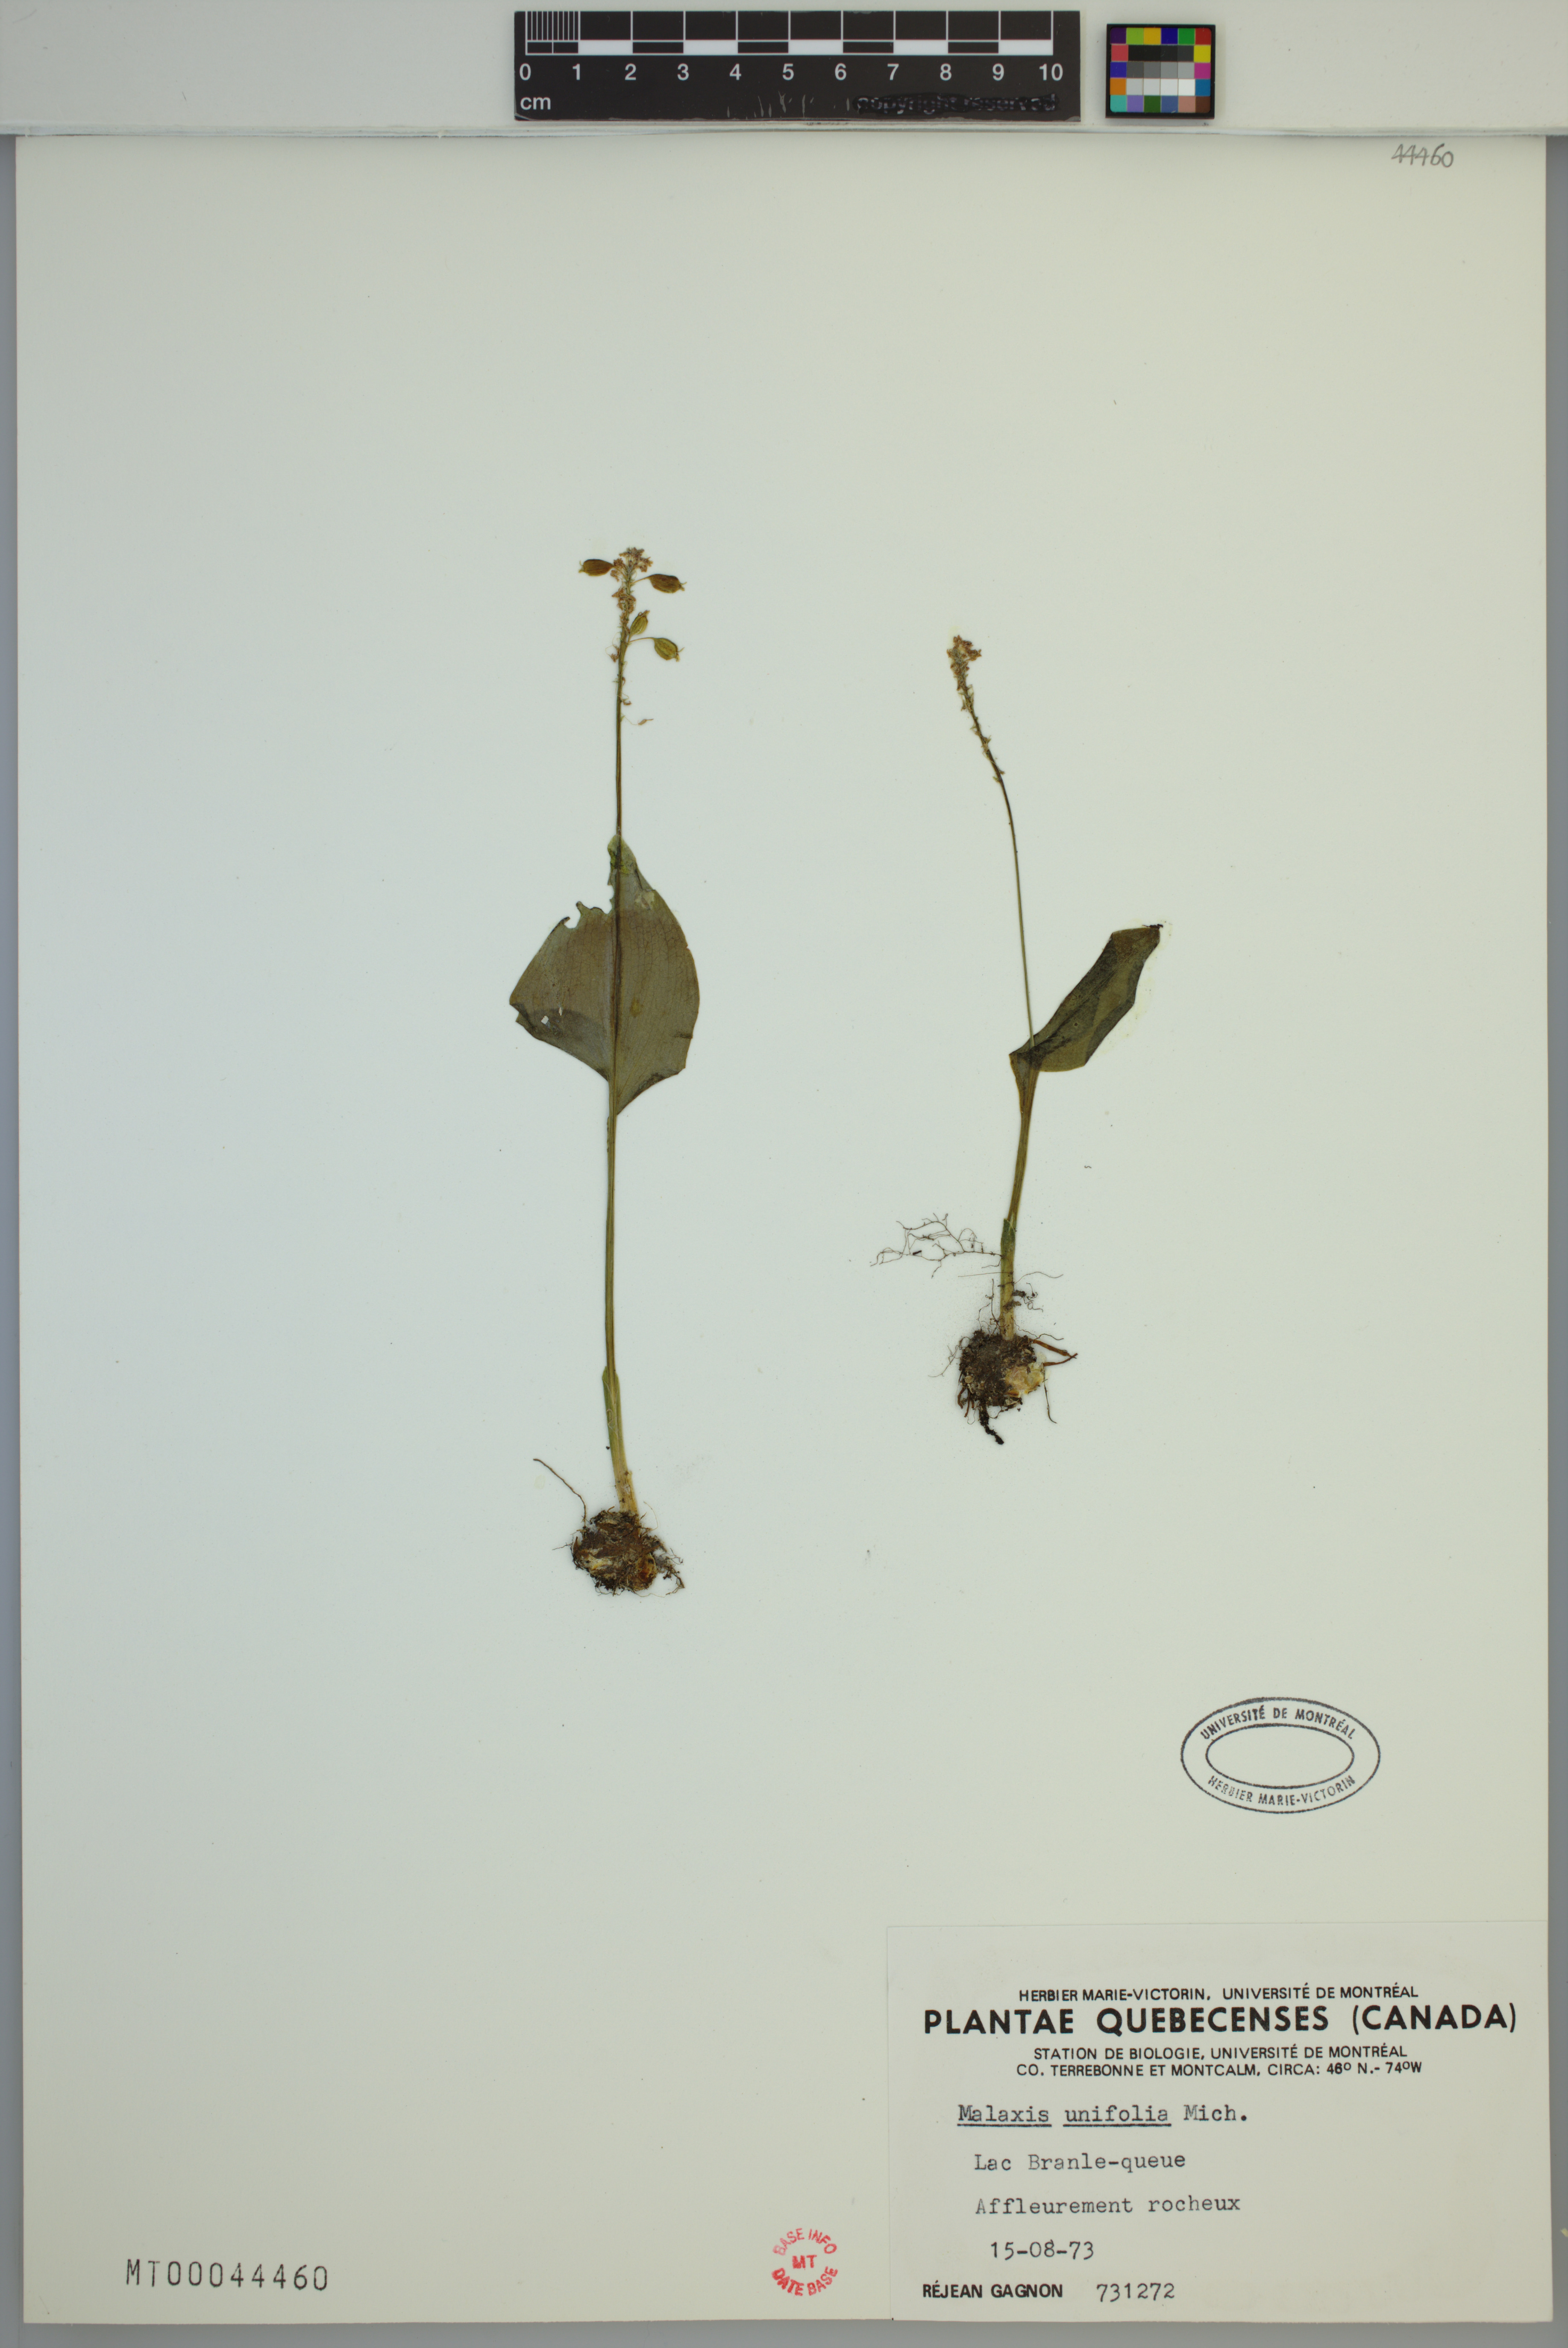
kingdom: Plantae
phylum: Tracheophyta
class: Liliopsida
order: Asparagales
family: Orchidaceae
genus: Malaxis
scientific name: Malaxis unifolia
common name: Green adder's-mouth
